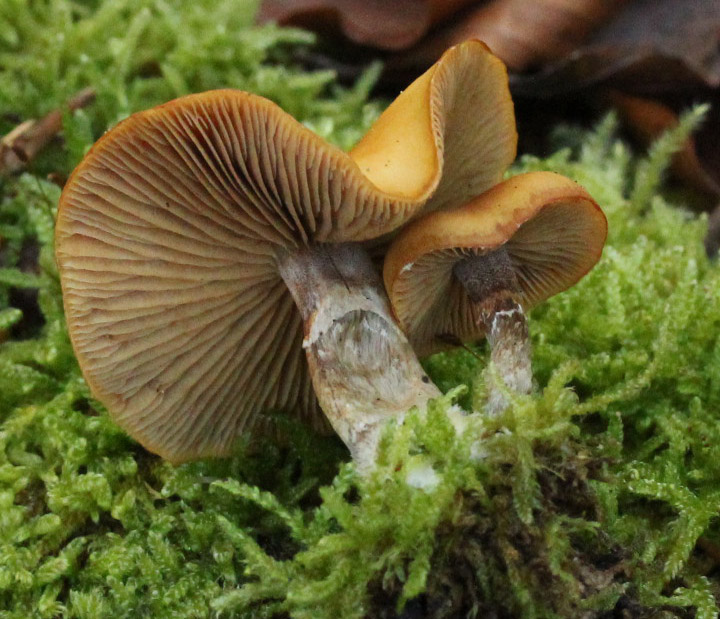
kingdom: Fungi
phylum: Basidiomycota
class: Agaricomycetes
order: Agaricales
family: Hymenogastraceae
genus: Galerina
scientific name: Galerina marginata
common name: randbæltet hjelmhat
